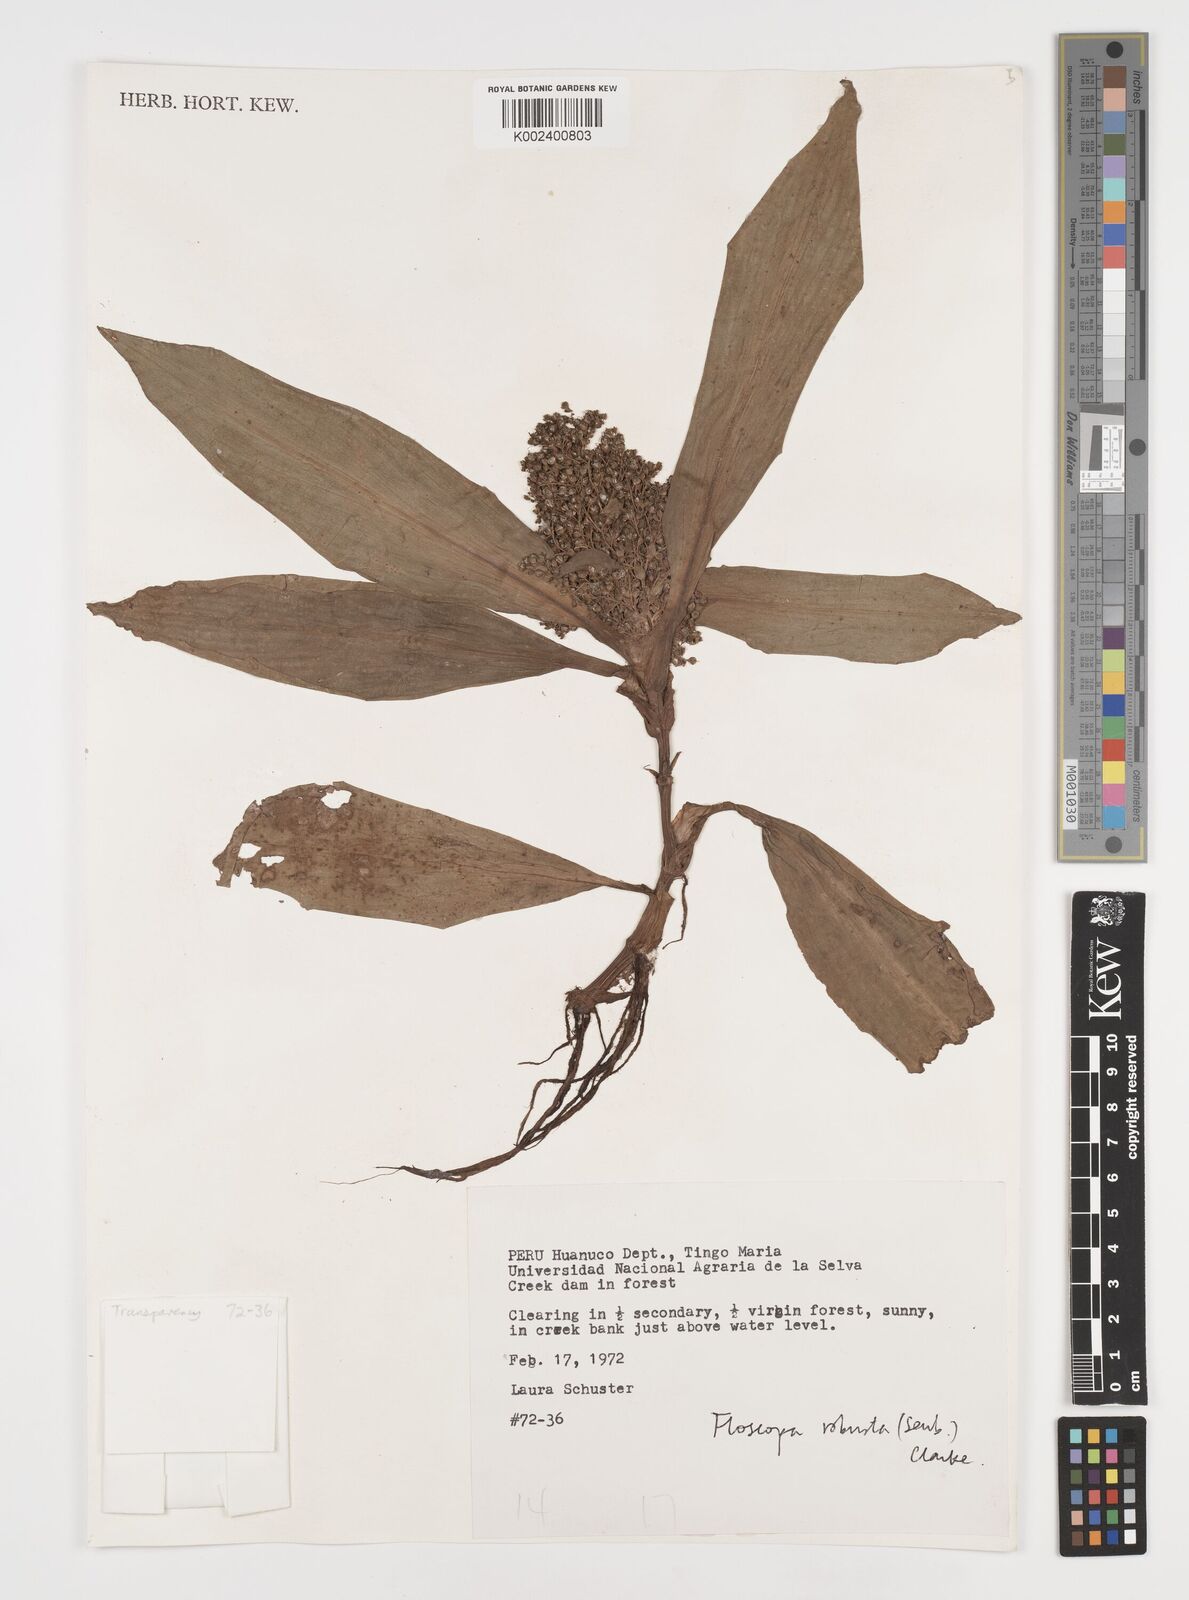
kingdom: Plantae
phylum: Tracheophyta
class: Liliopsida
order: Commelinales
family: Commelinaceae
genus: Floscopa
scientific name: Floscopa robusta
